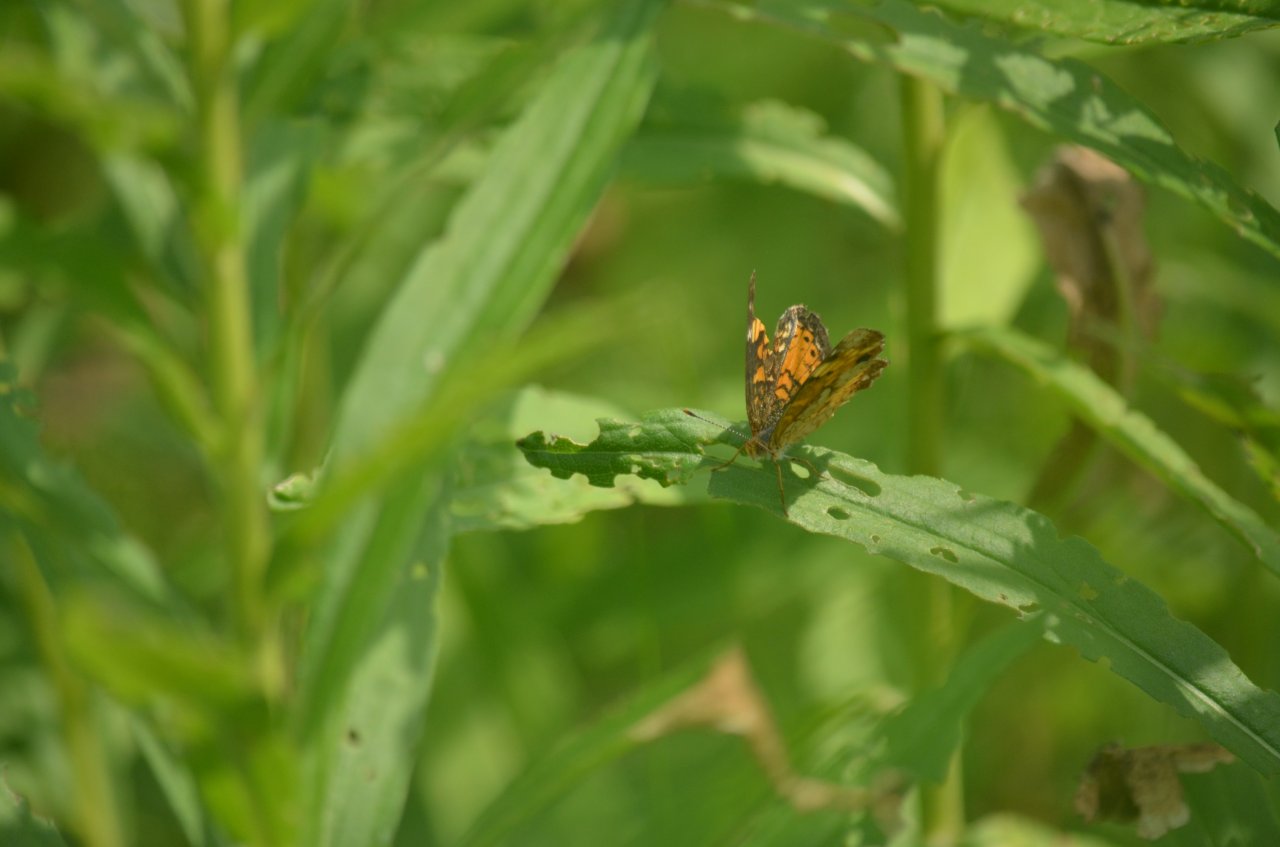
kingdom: Animalia
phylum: Arthropoda
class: Insecta
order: Lepidoptera
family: Nymphalidae
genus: Phyciodes
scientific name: Phyciodes tharos
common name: Northern Crescent
